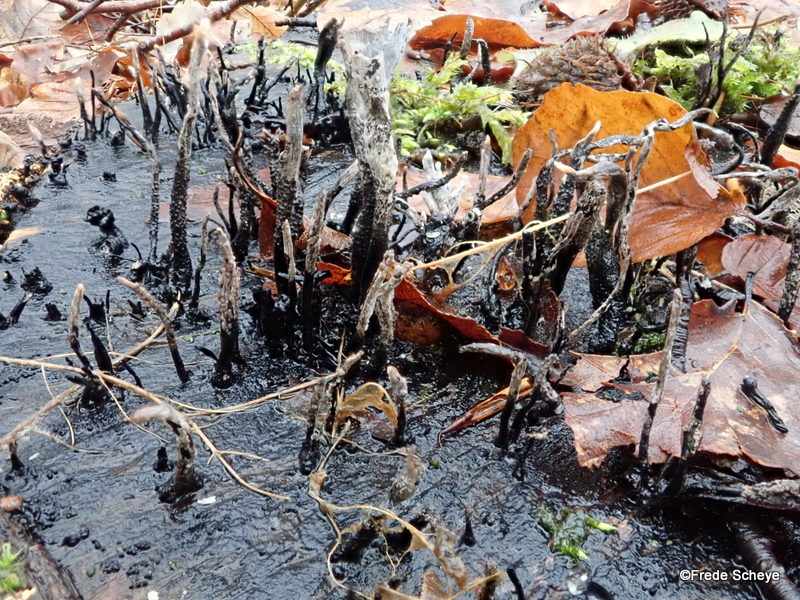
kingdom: Fungi
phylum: Ascomycota
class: Sordariomycetes
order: Xylariales
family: Xylariaceae
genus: Xylaria
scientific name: Xylaria hypoxylon
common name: grenet stødsvamp
